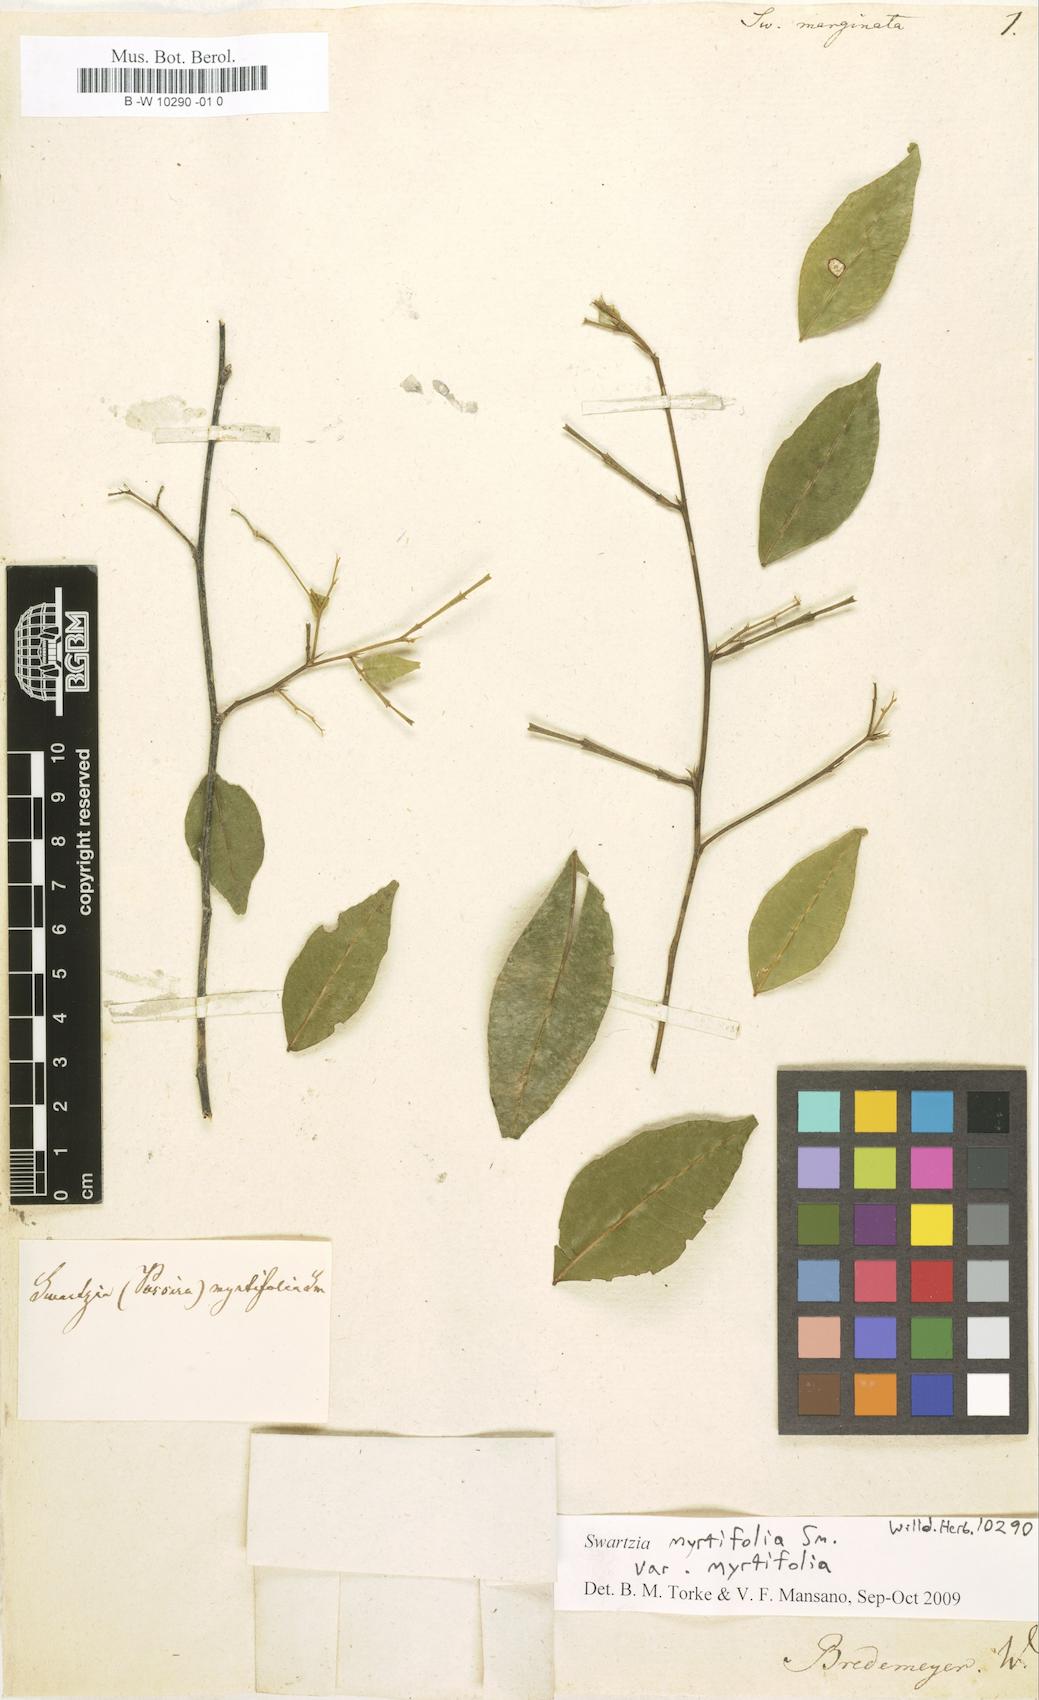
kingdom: Plantae
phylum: Tracheophyta
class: Magnoliopsida
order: Fabales
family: Fabaceae
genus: Bobgunnia
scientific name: Bobgunnia madagascariensis
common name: Snake bean plant
